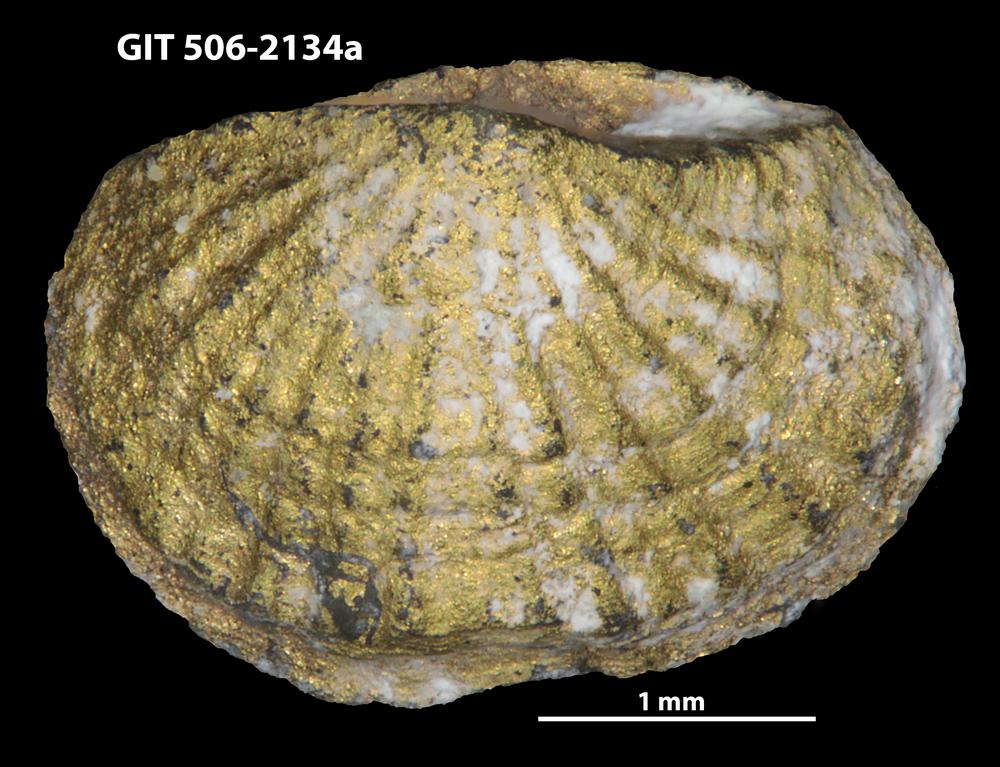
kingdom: Animalia
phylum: Brachiopoda
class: Rhynchonellata
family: Skenidiidae
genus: Skenidioides
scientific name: Skenidioides petrasi
